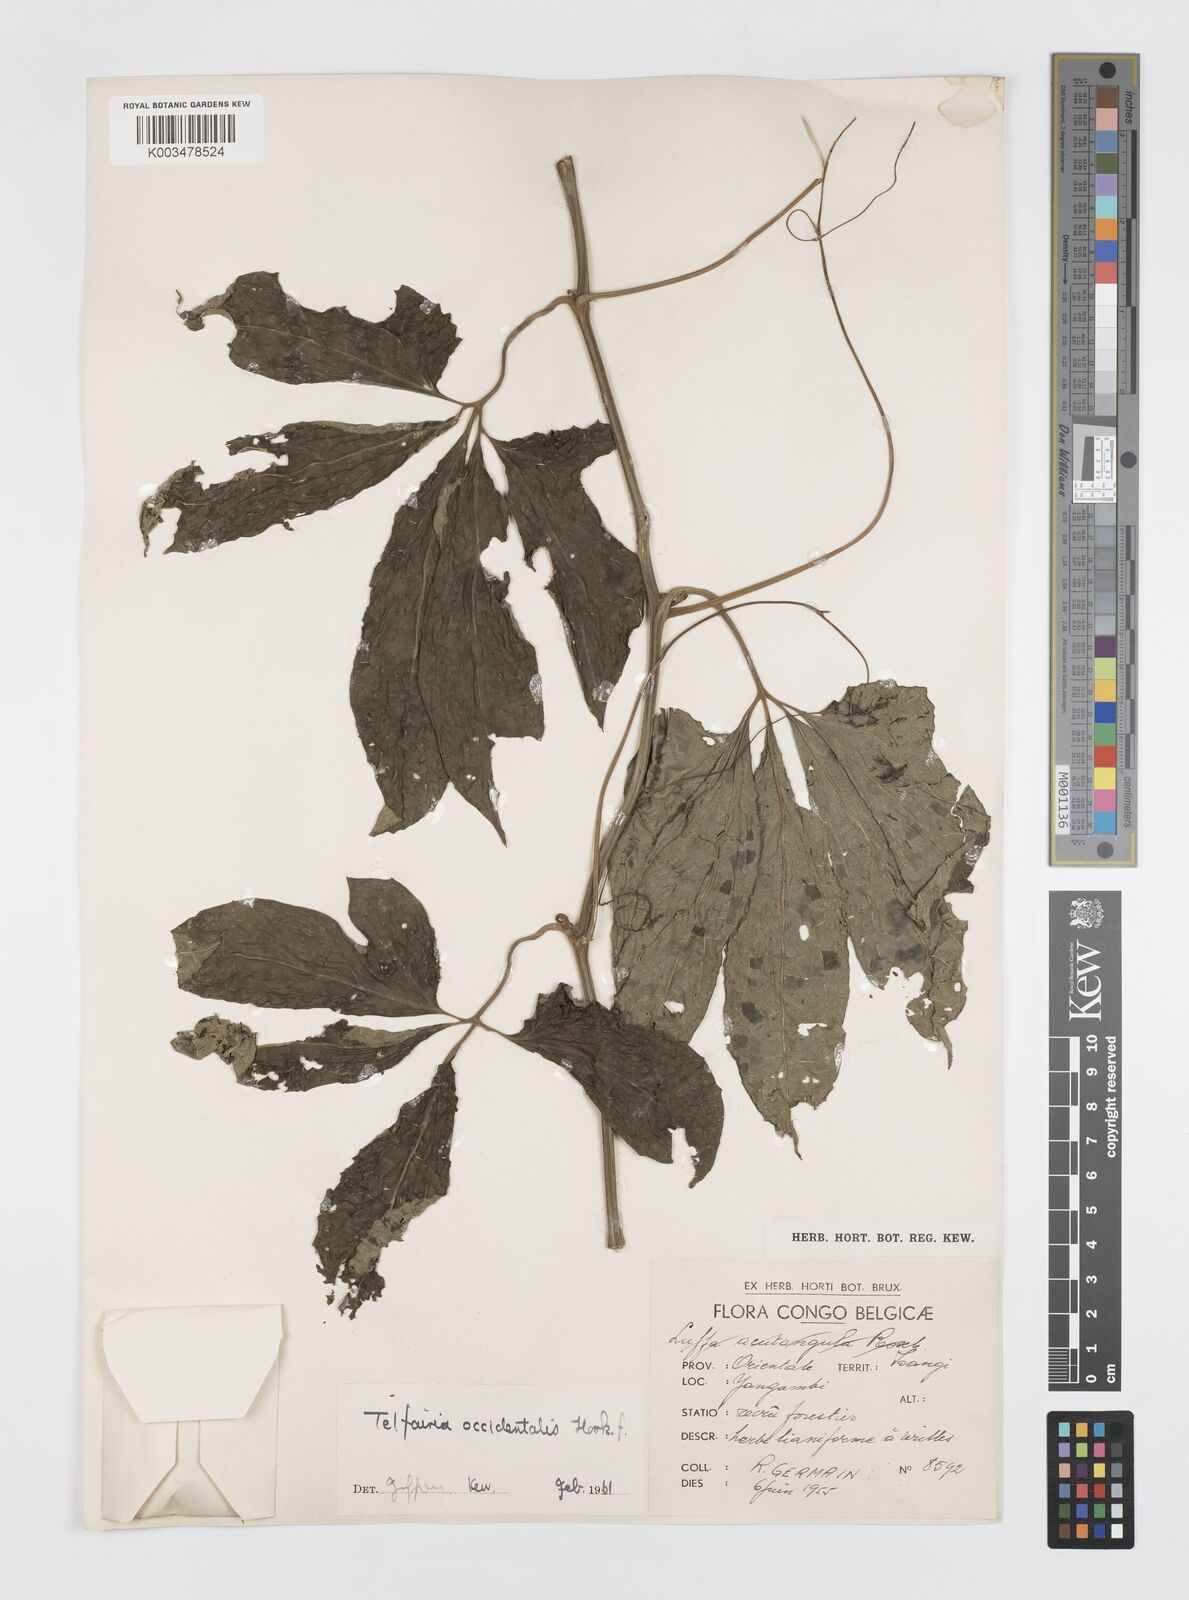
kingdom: Plantae
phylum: Tracheophyta
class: Magnoliopsida
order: Cucurbitales
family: Cucurbitaceae
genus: Telfairia
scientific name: Telfairia occidentalis
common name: Oysternut
